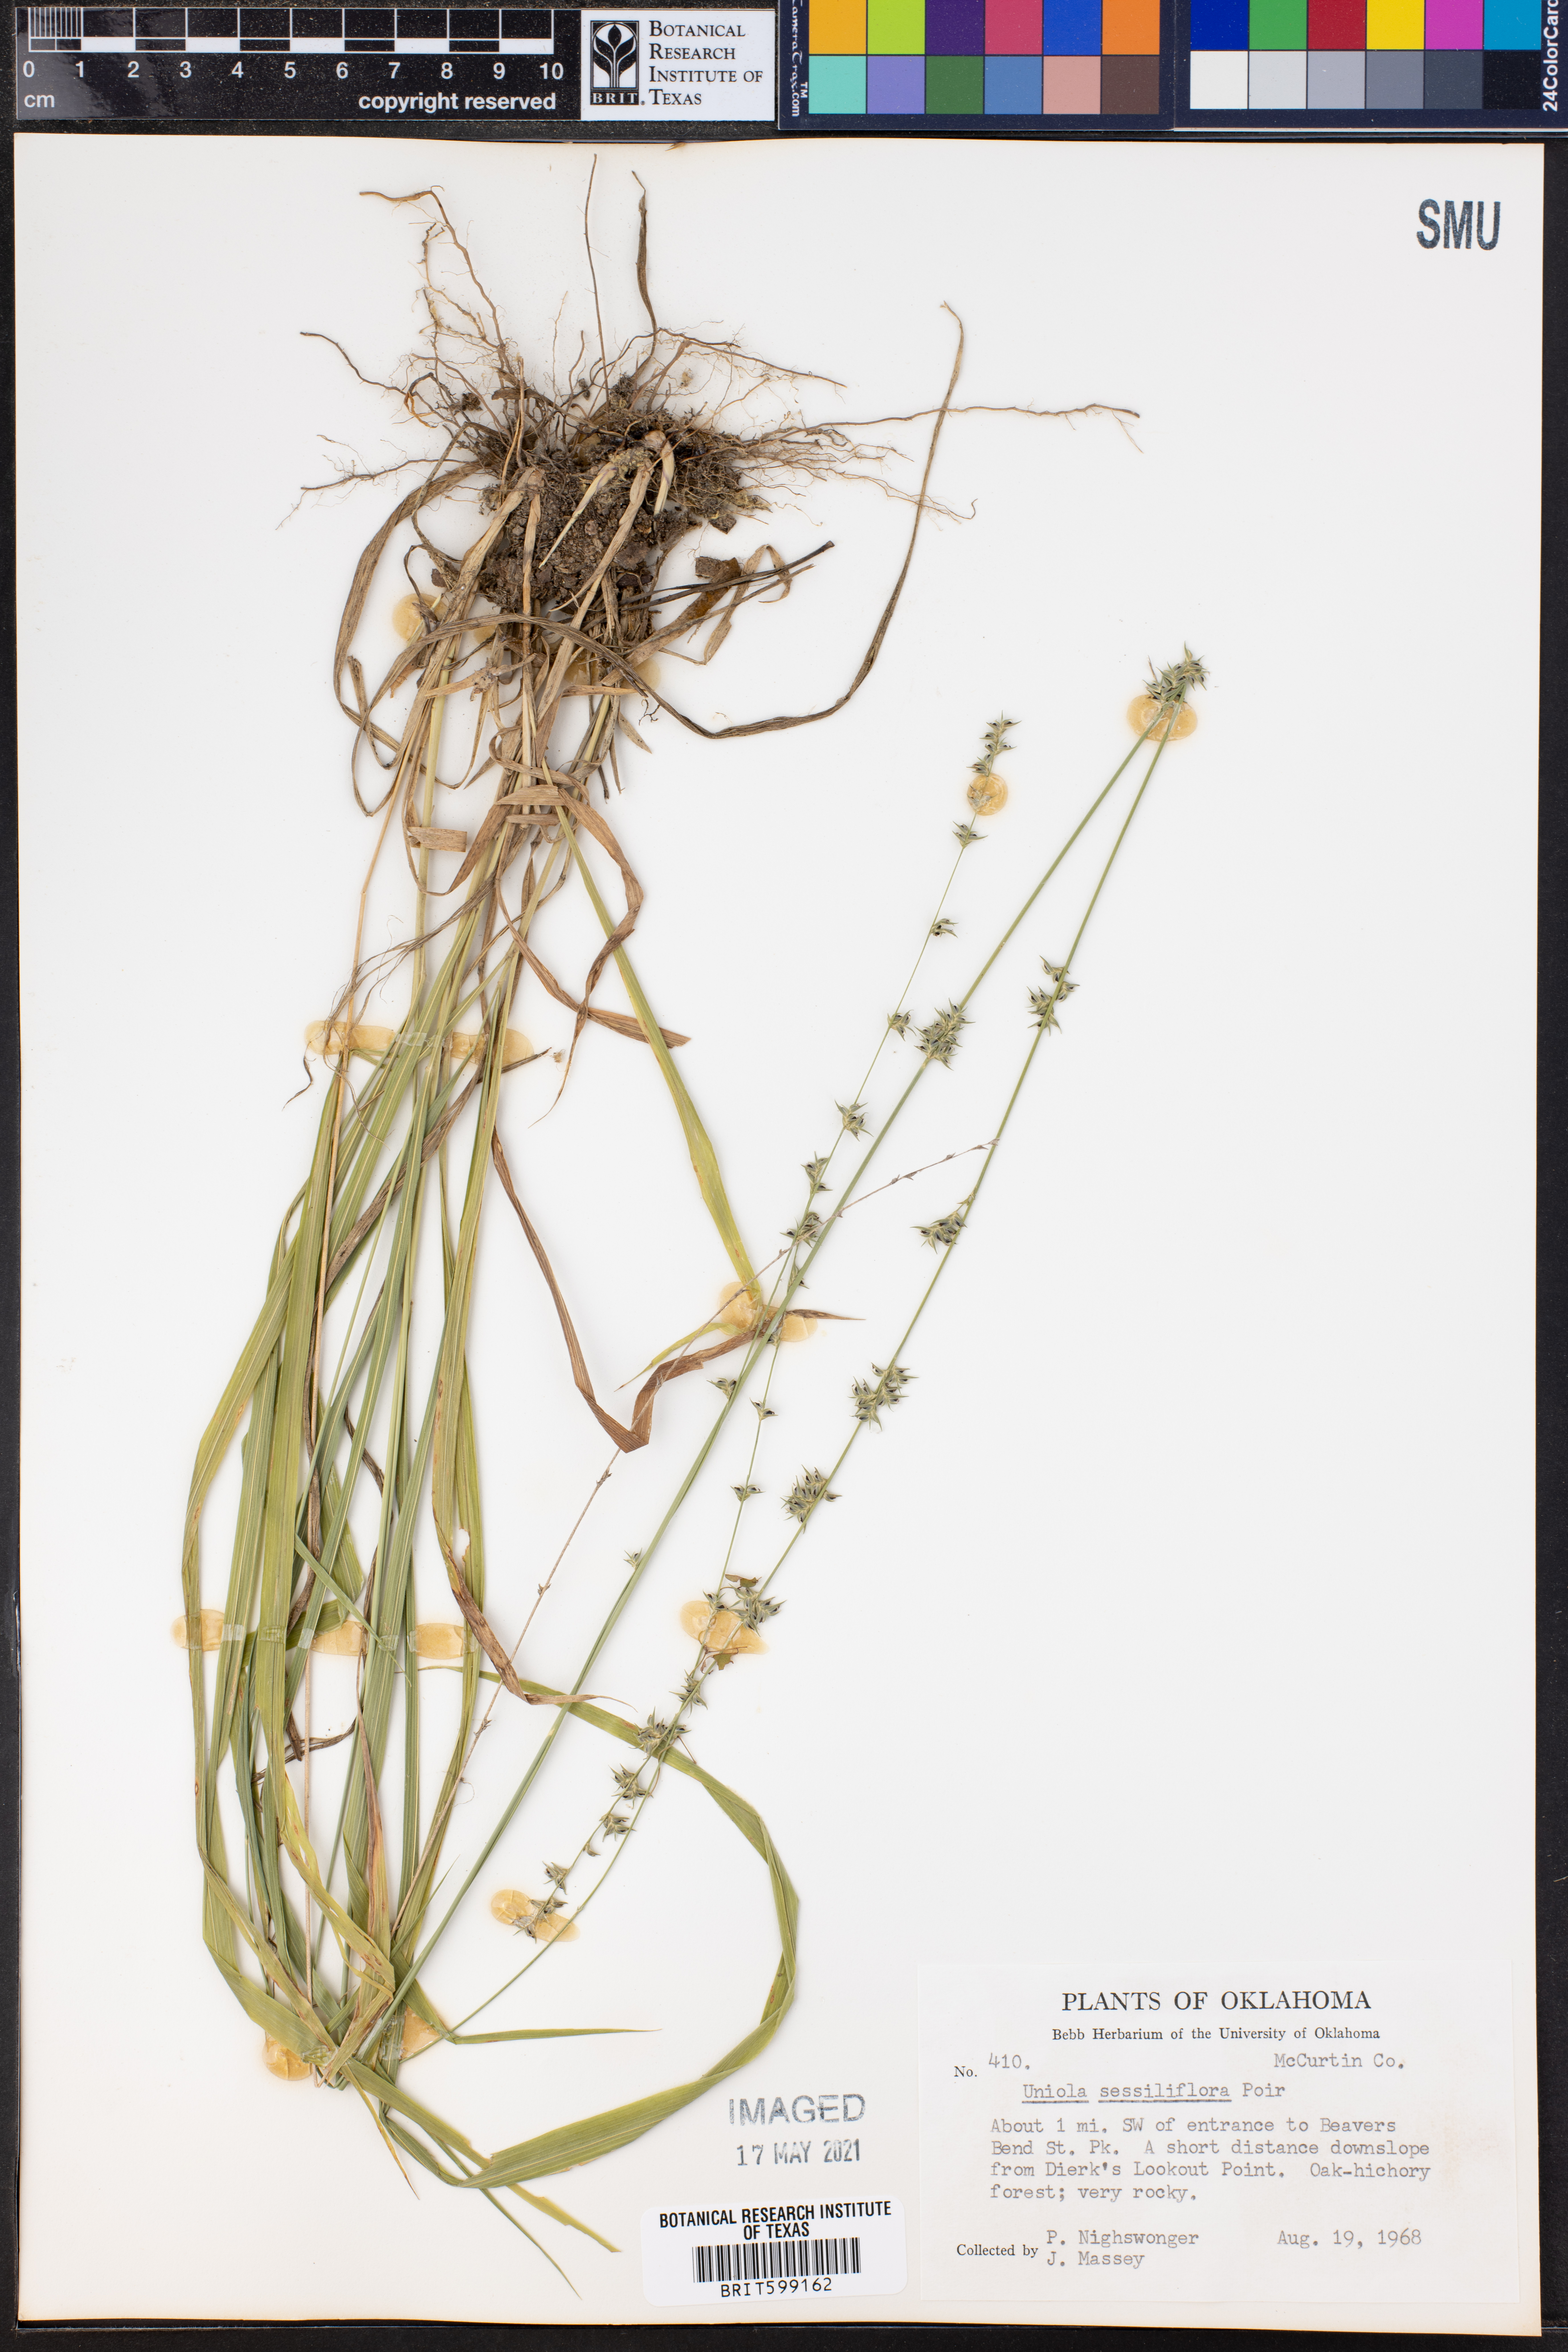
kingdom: Plantae
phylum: Tracheophyta
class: Liliopsida
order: Poales
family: Poaceae
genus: Chasmanthium
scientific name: Chasmanthium laxum
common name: Slender chasmanthium
